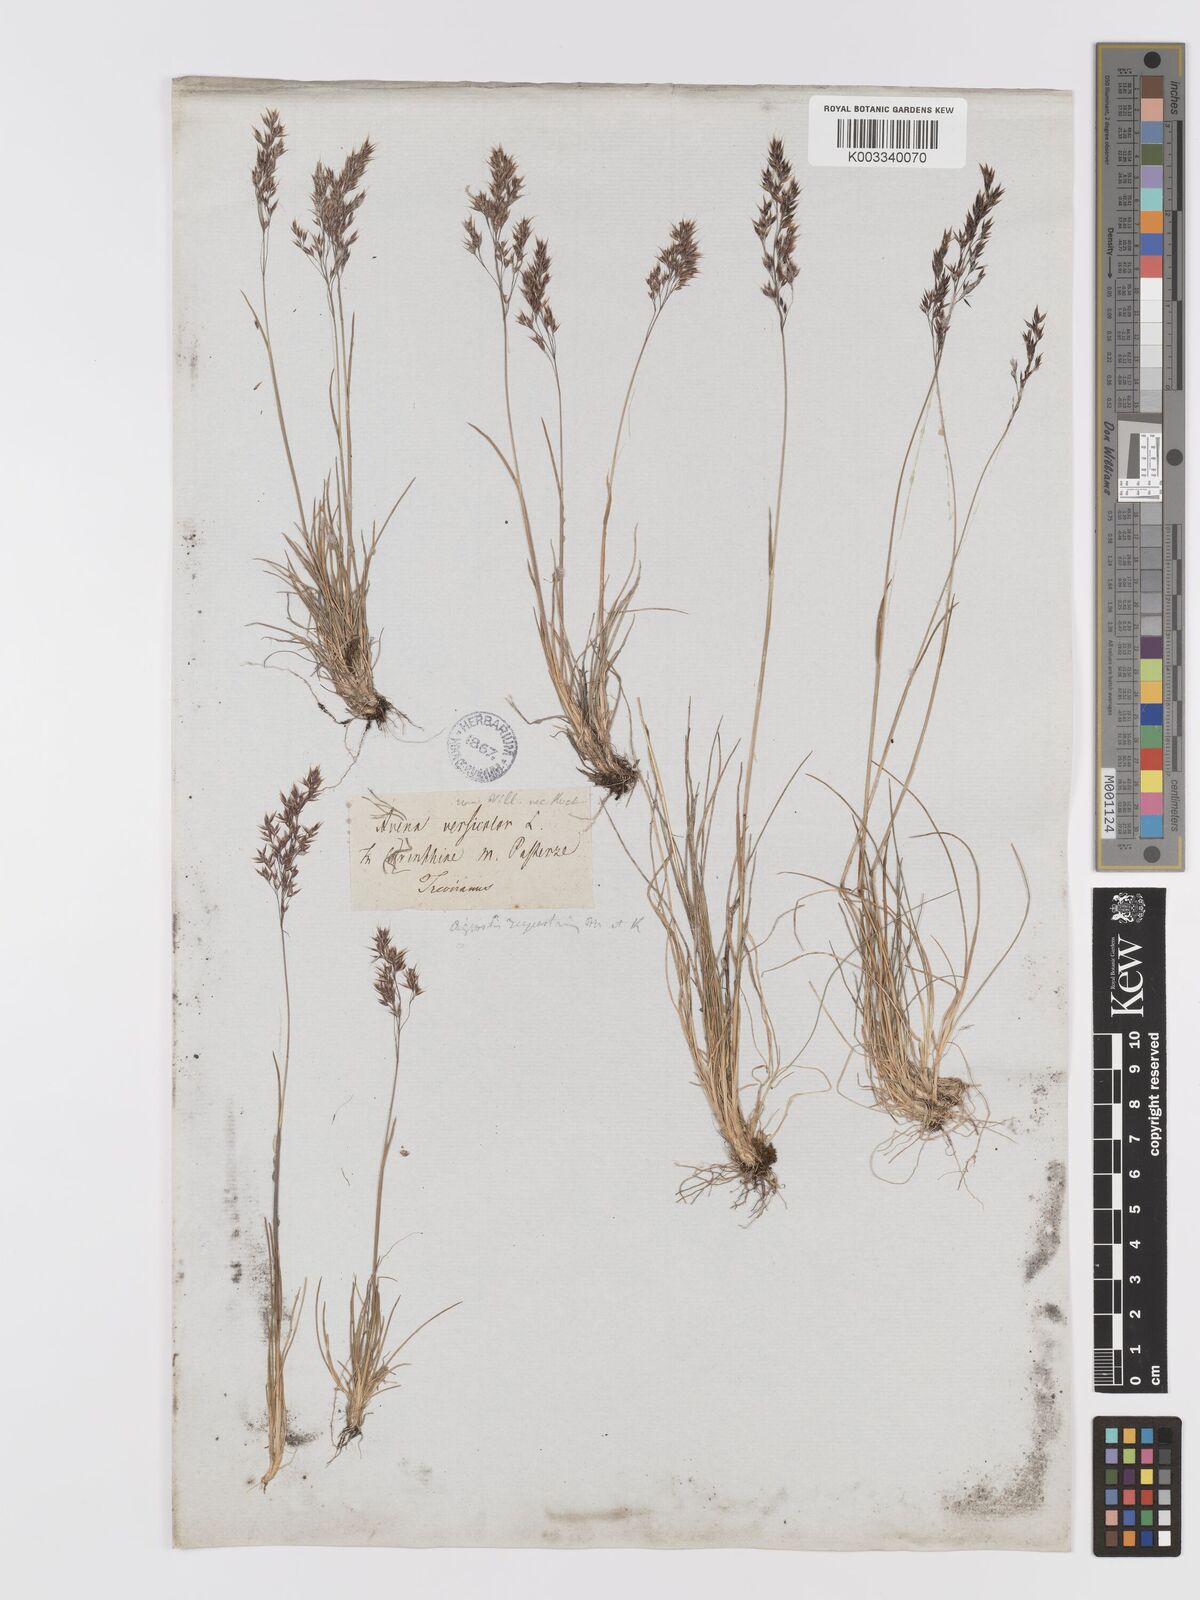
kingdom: Plantae
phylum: Tracheophyta
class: Liliopsida
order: Poales
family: Poaceae
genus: Agrostis
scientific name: Agrostis rupestris
